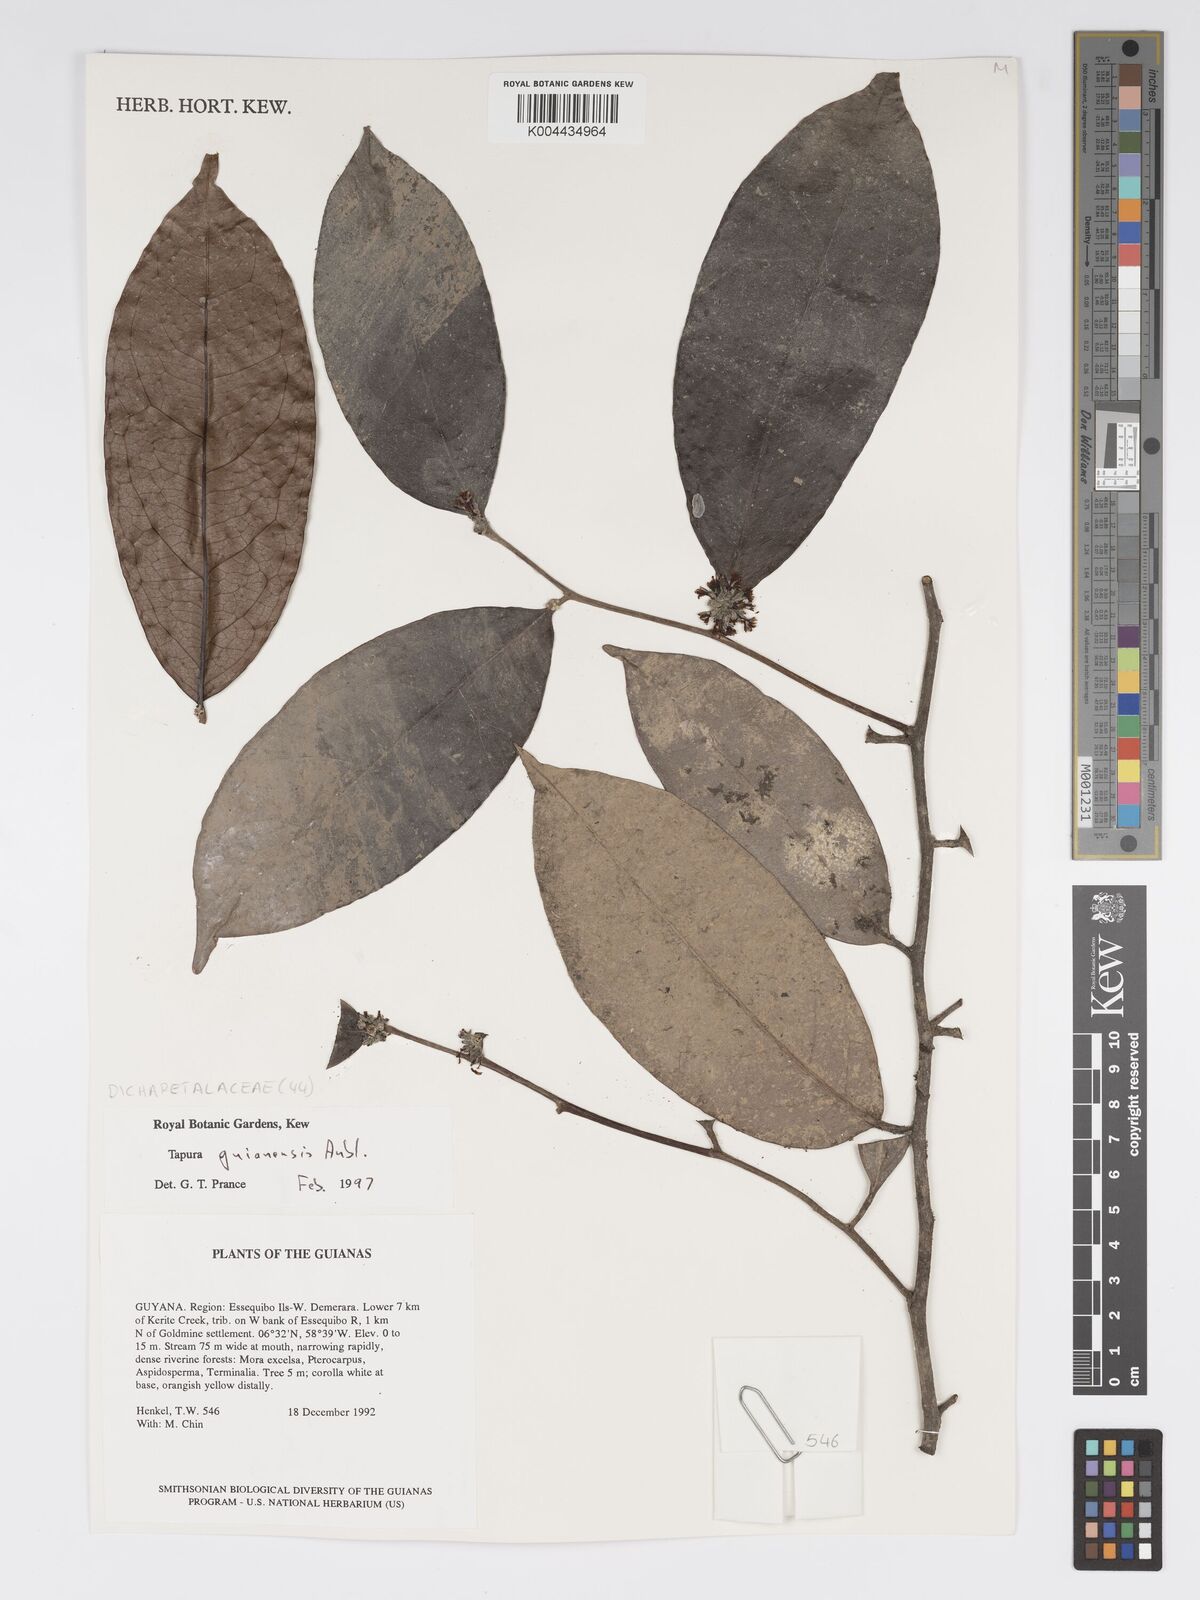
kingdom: Plantae
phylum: Tracheophyta
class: Magnoliopsida
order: Malpighiales
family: Dichapetalaceae
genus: Tapura
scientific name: Tapura guianensis
